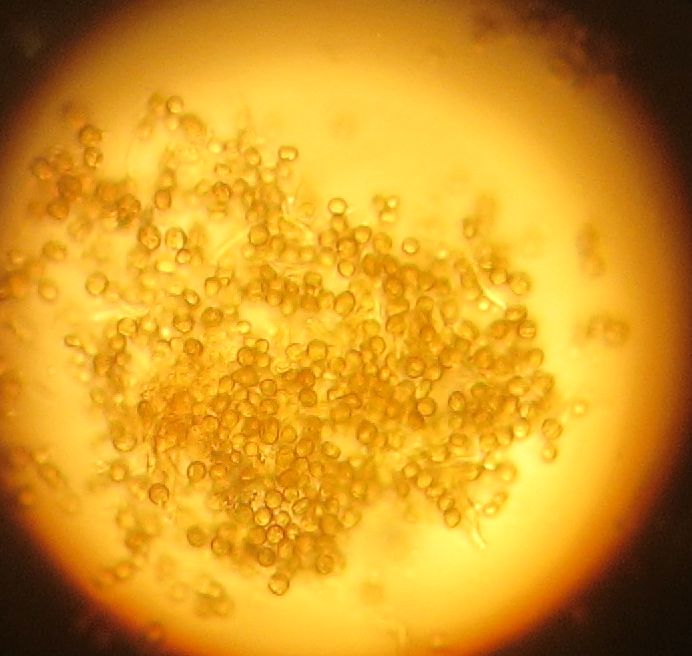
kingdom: Fungi
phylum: Ascomycota
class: Coniocybomycetes
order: Coniocybales
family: Coniocybaceae
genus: Chaenotheca
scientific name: Chaenotheca ferruginea
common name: rustbrun knappenålslav
